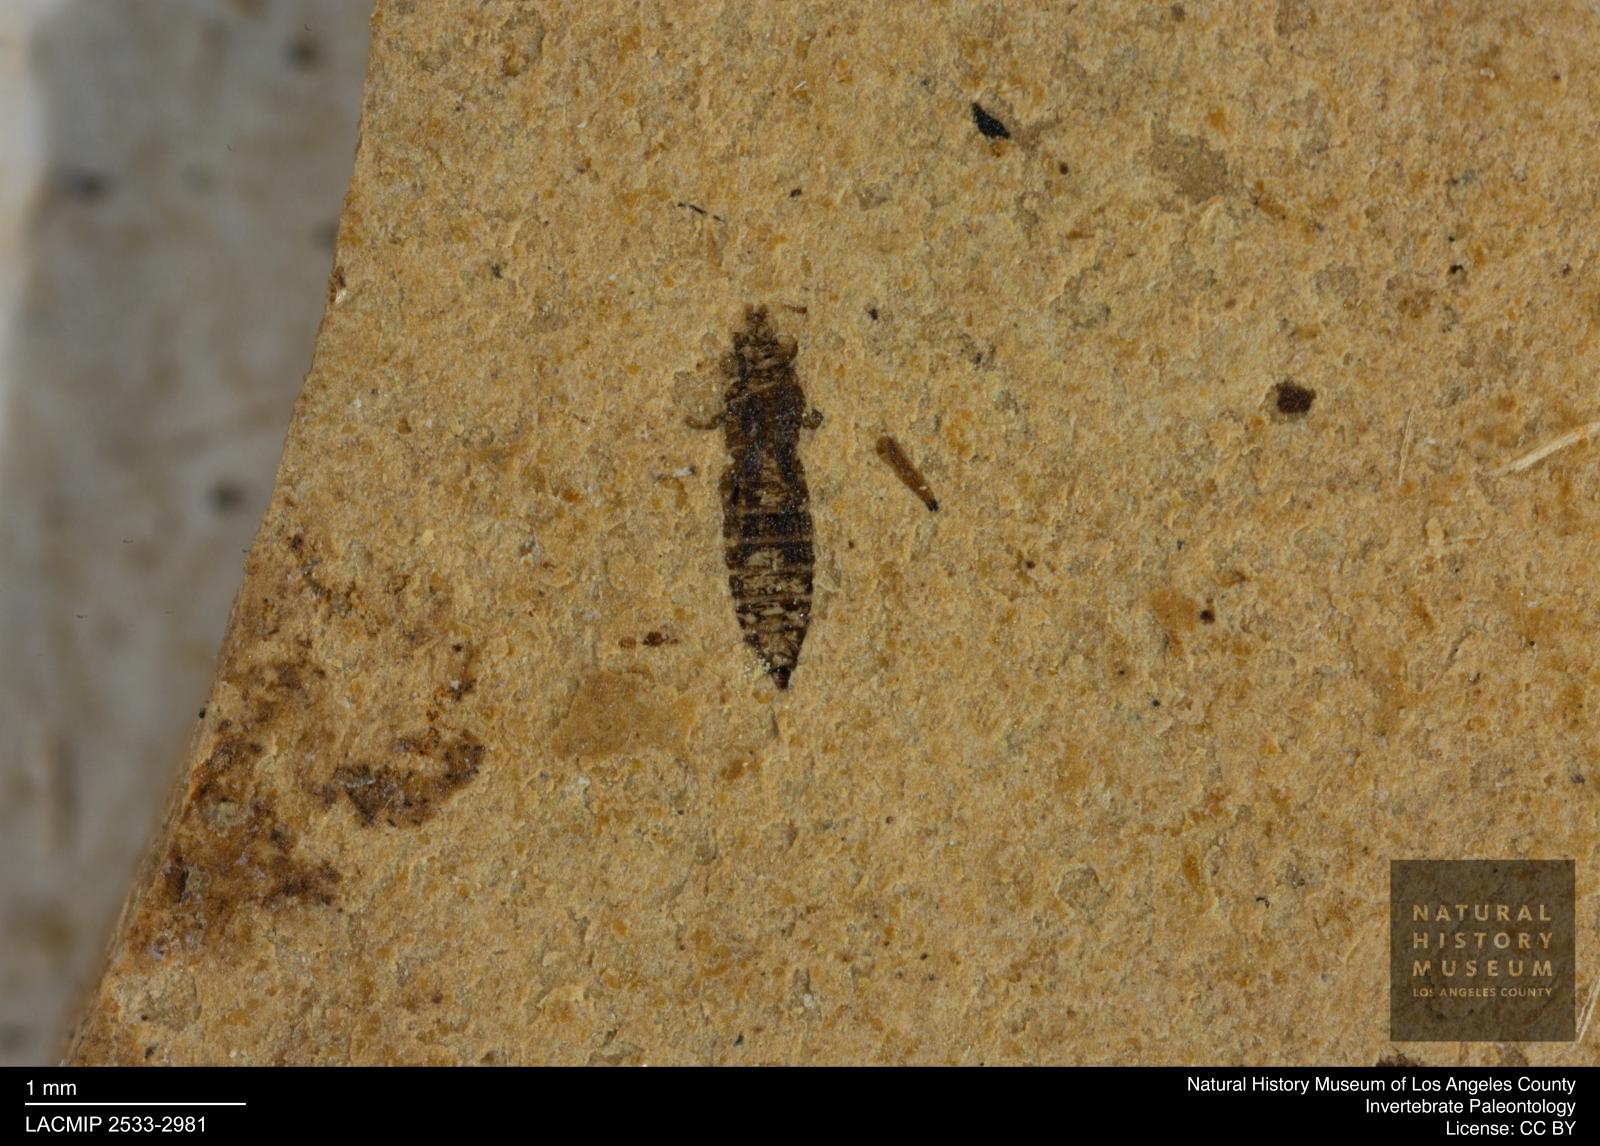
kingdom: Animalia
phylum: Arthropoda
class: Insecta
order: Thysanoptera
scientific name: Thysanoptera
